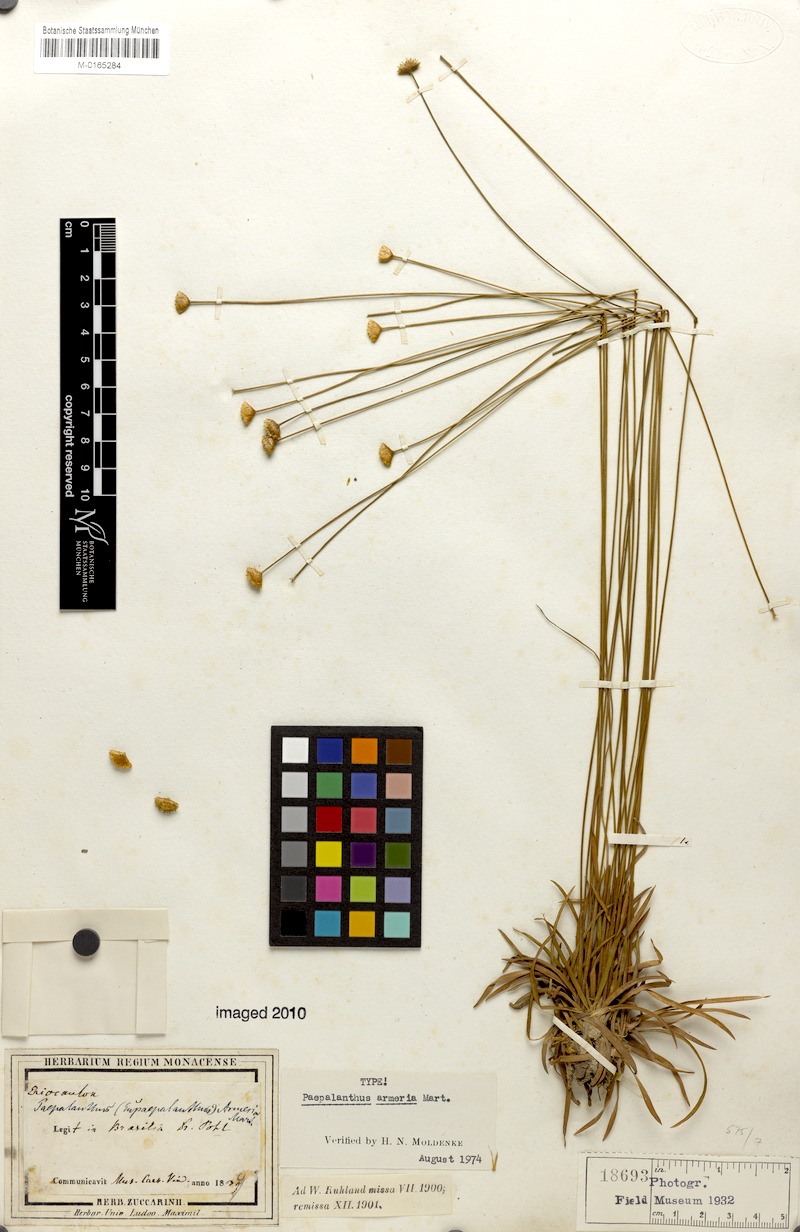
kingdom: Plantae
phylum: Tracheophyta
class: Liliopsida
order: Poales
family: Eriocaulaceae
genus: Paepalanthus
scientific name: Paepalanthus armeria
